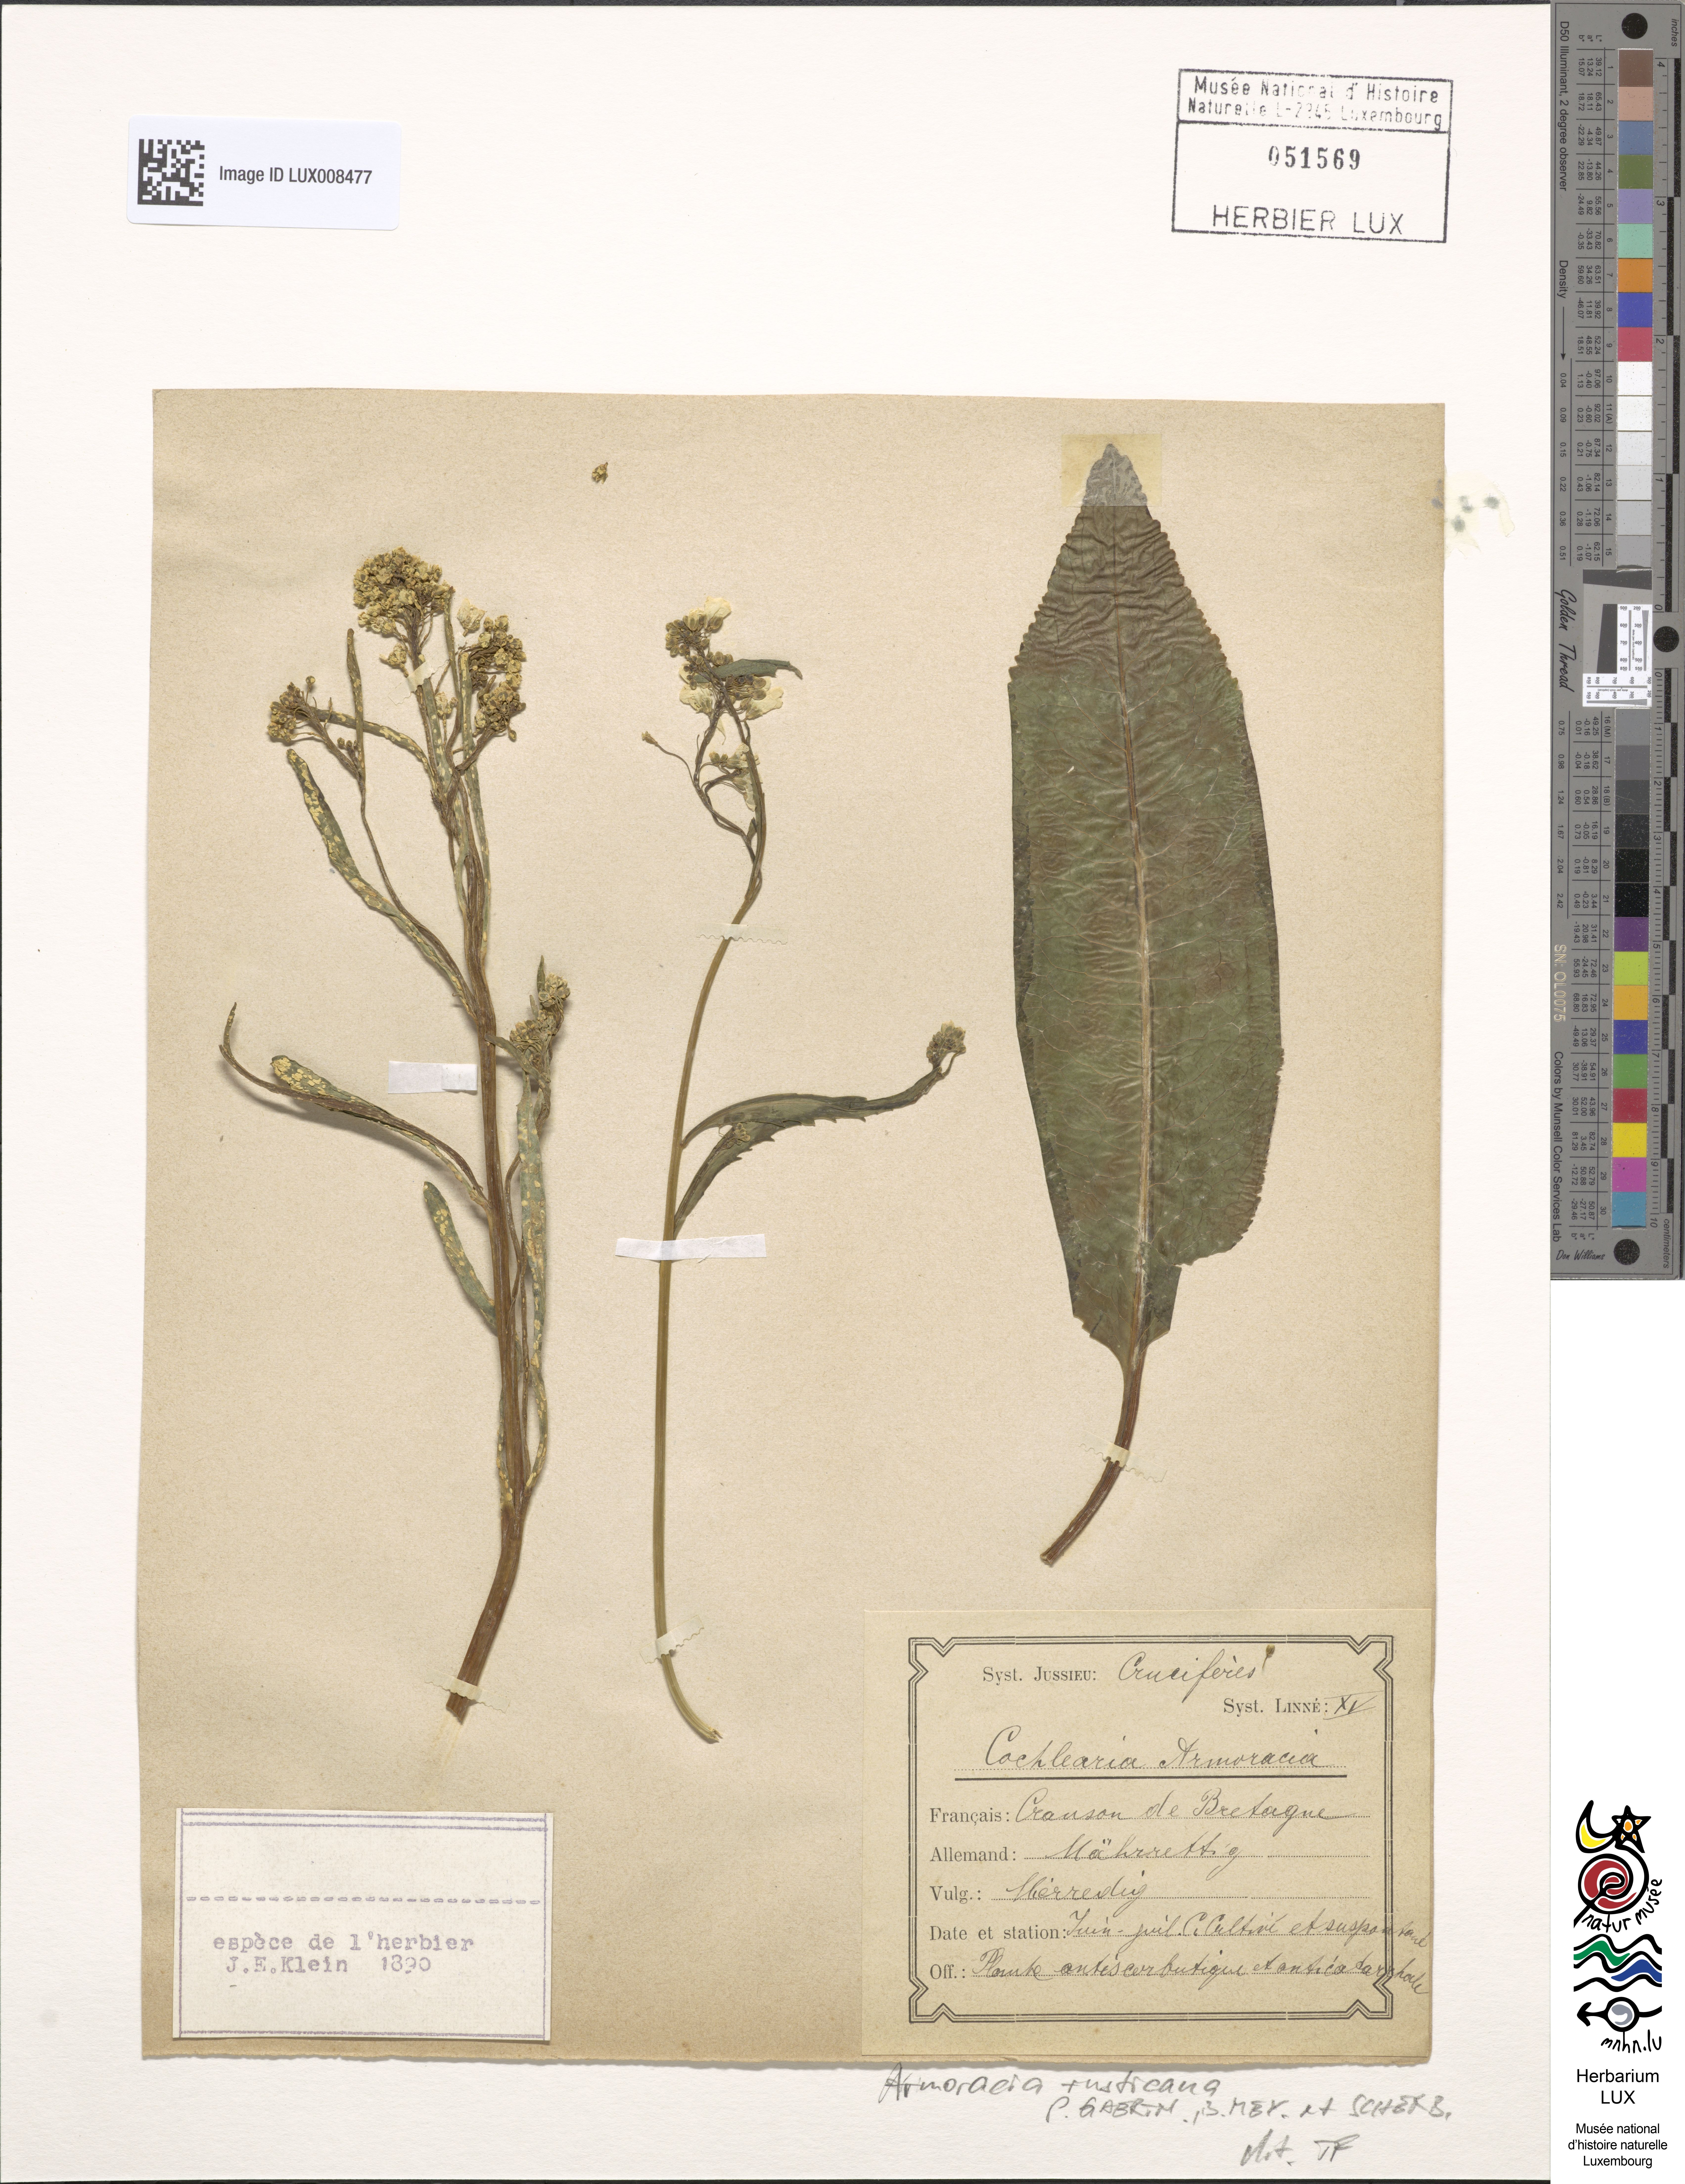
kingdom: Plantae
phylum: Tracheophyta
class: Magnoliopsida
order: Brassicales
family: Brassicaceae
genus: Armoracia
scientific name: Armoracia rusticana
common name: Horseradish
